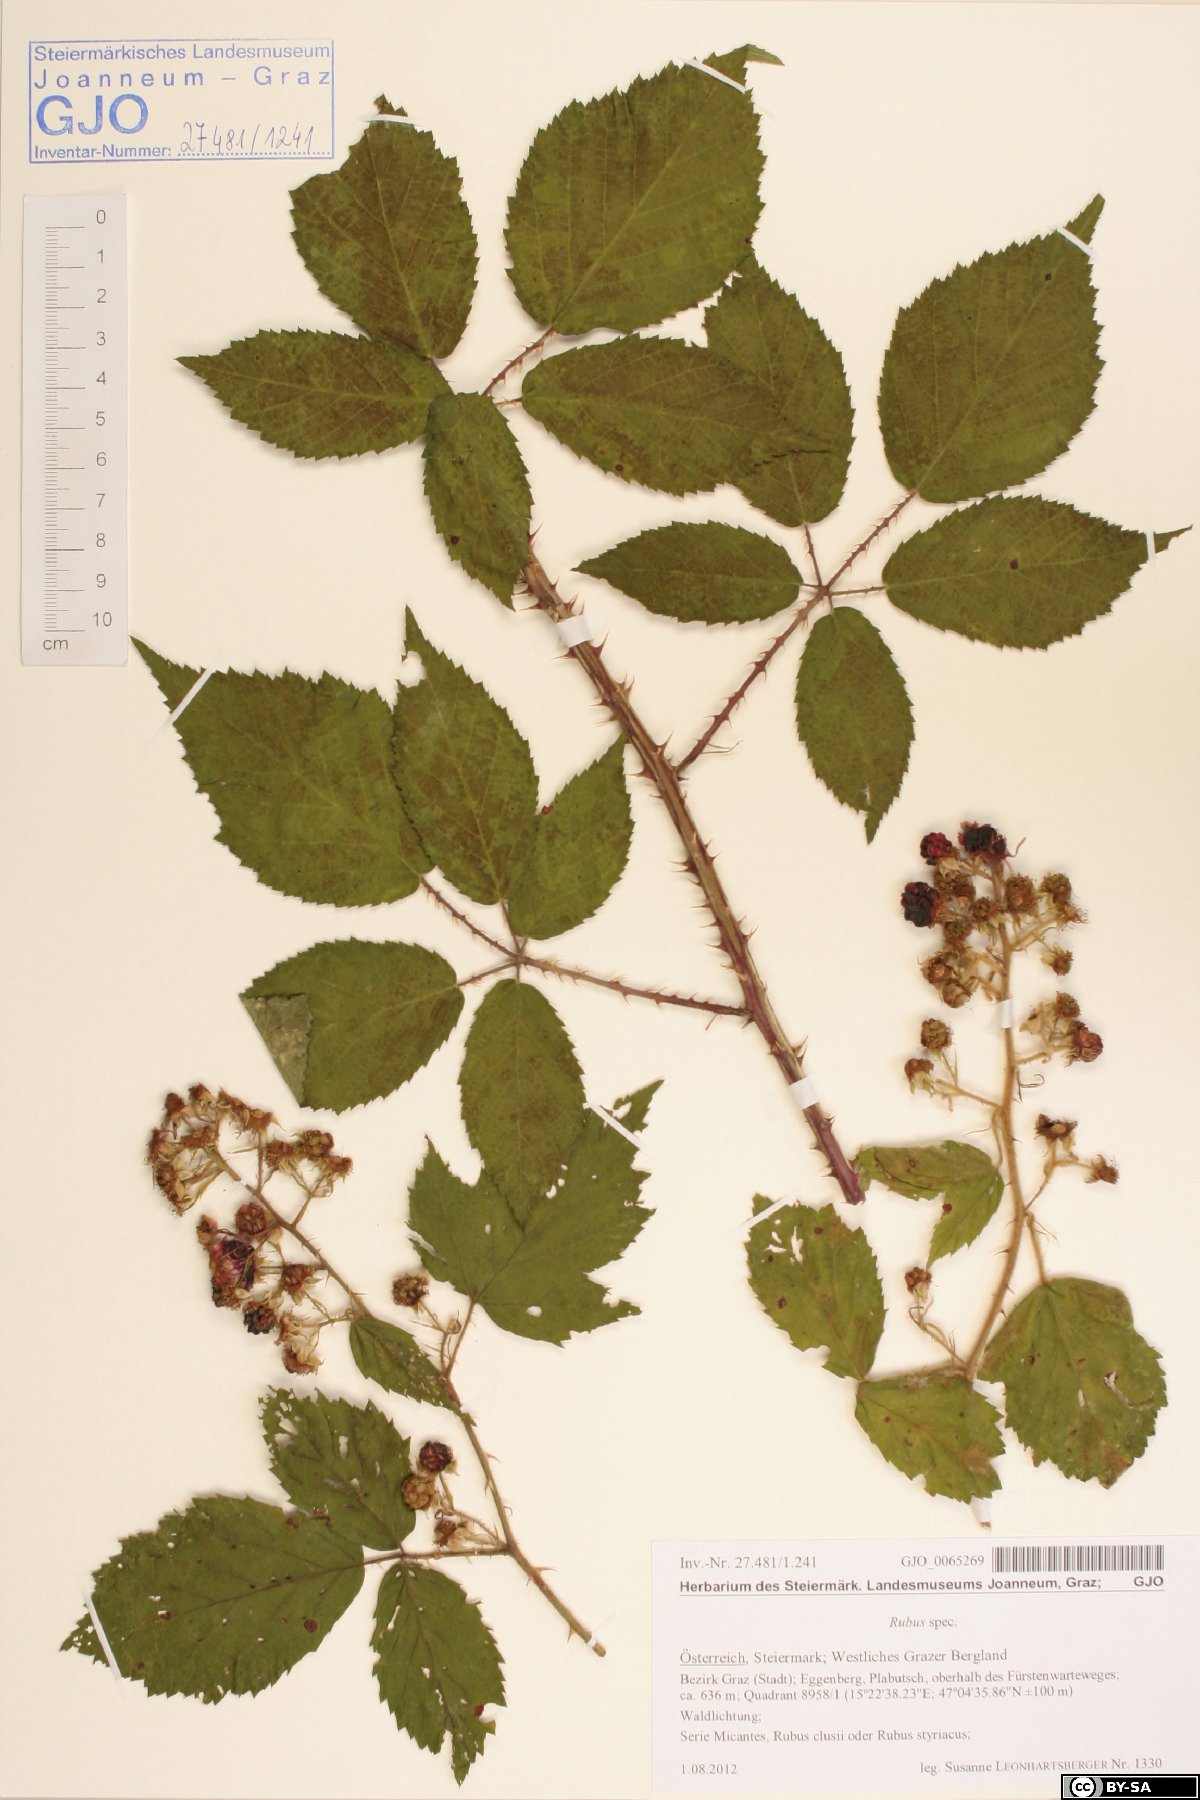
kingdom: Plantae
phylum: Tracheophyta
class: Magnoliopsida
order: Rosales
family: Rosaceae
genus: Rubus
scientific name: Rubus
